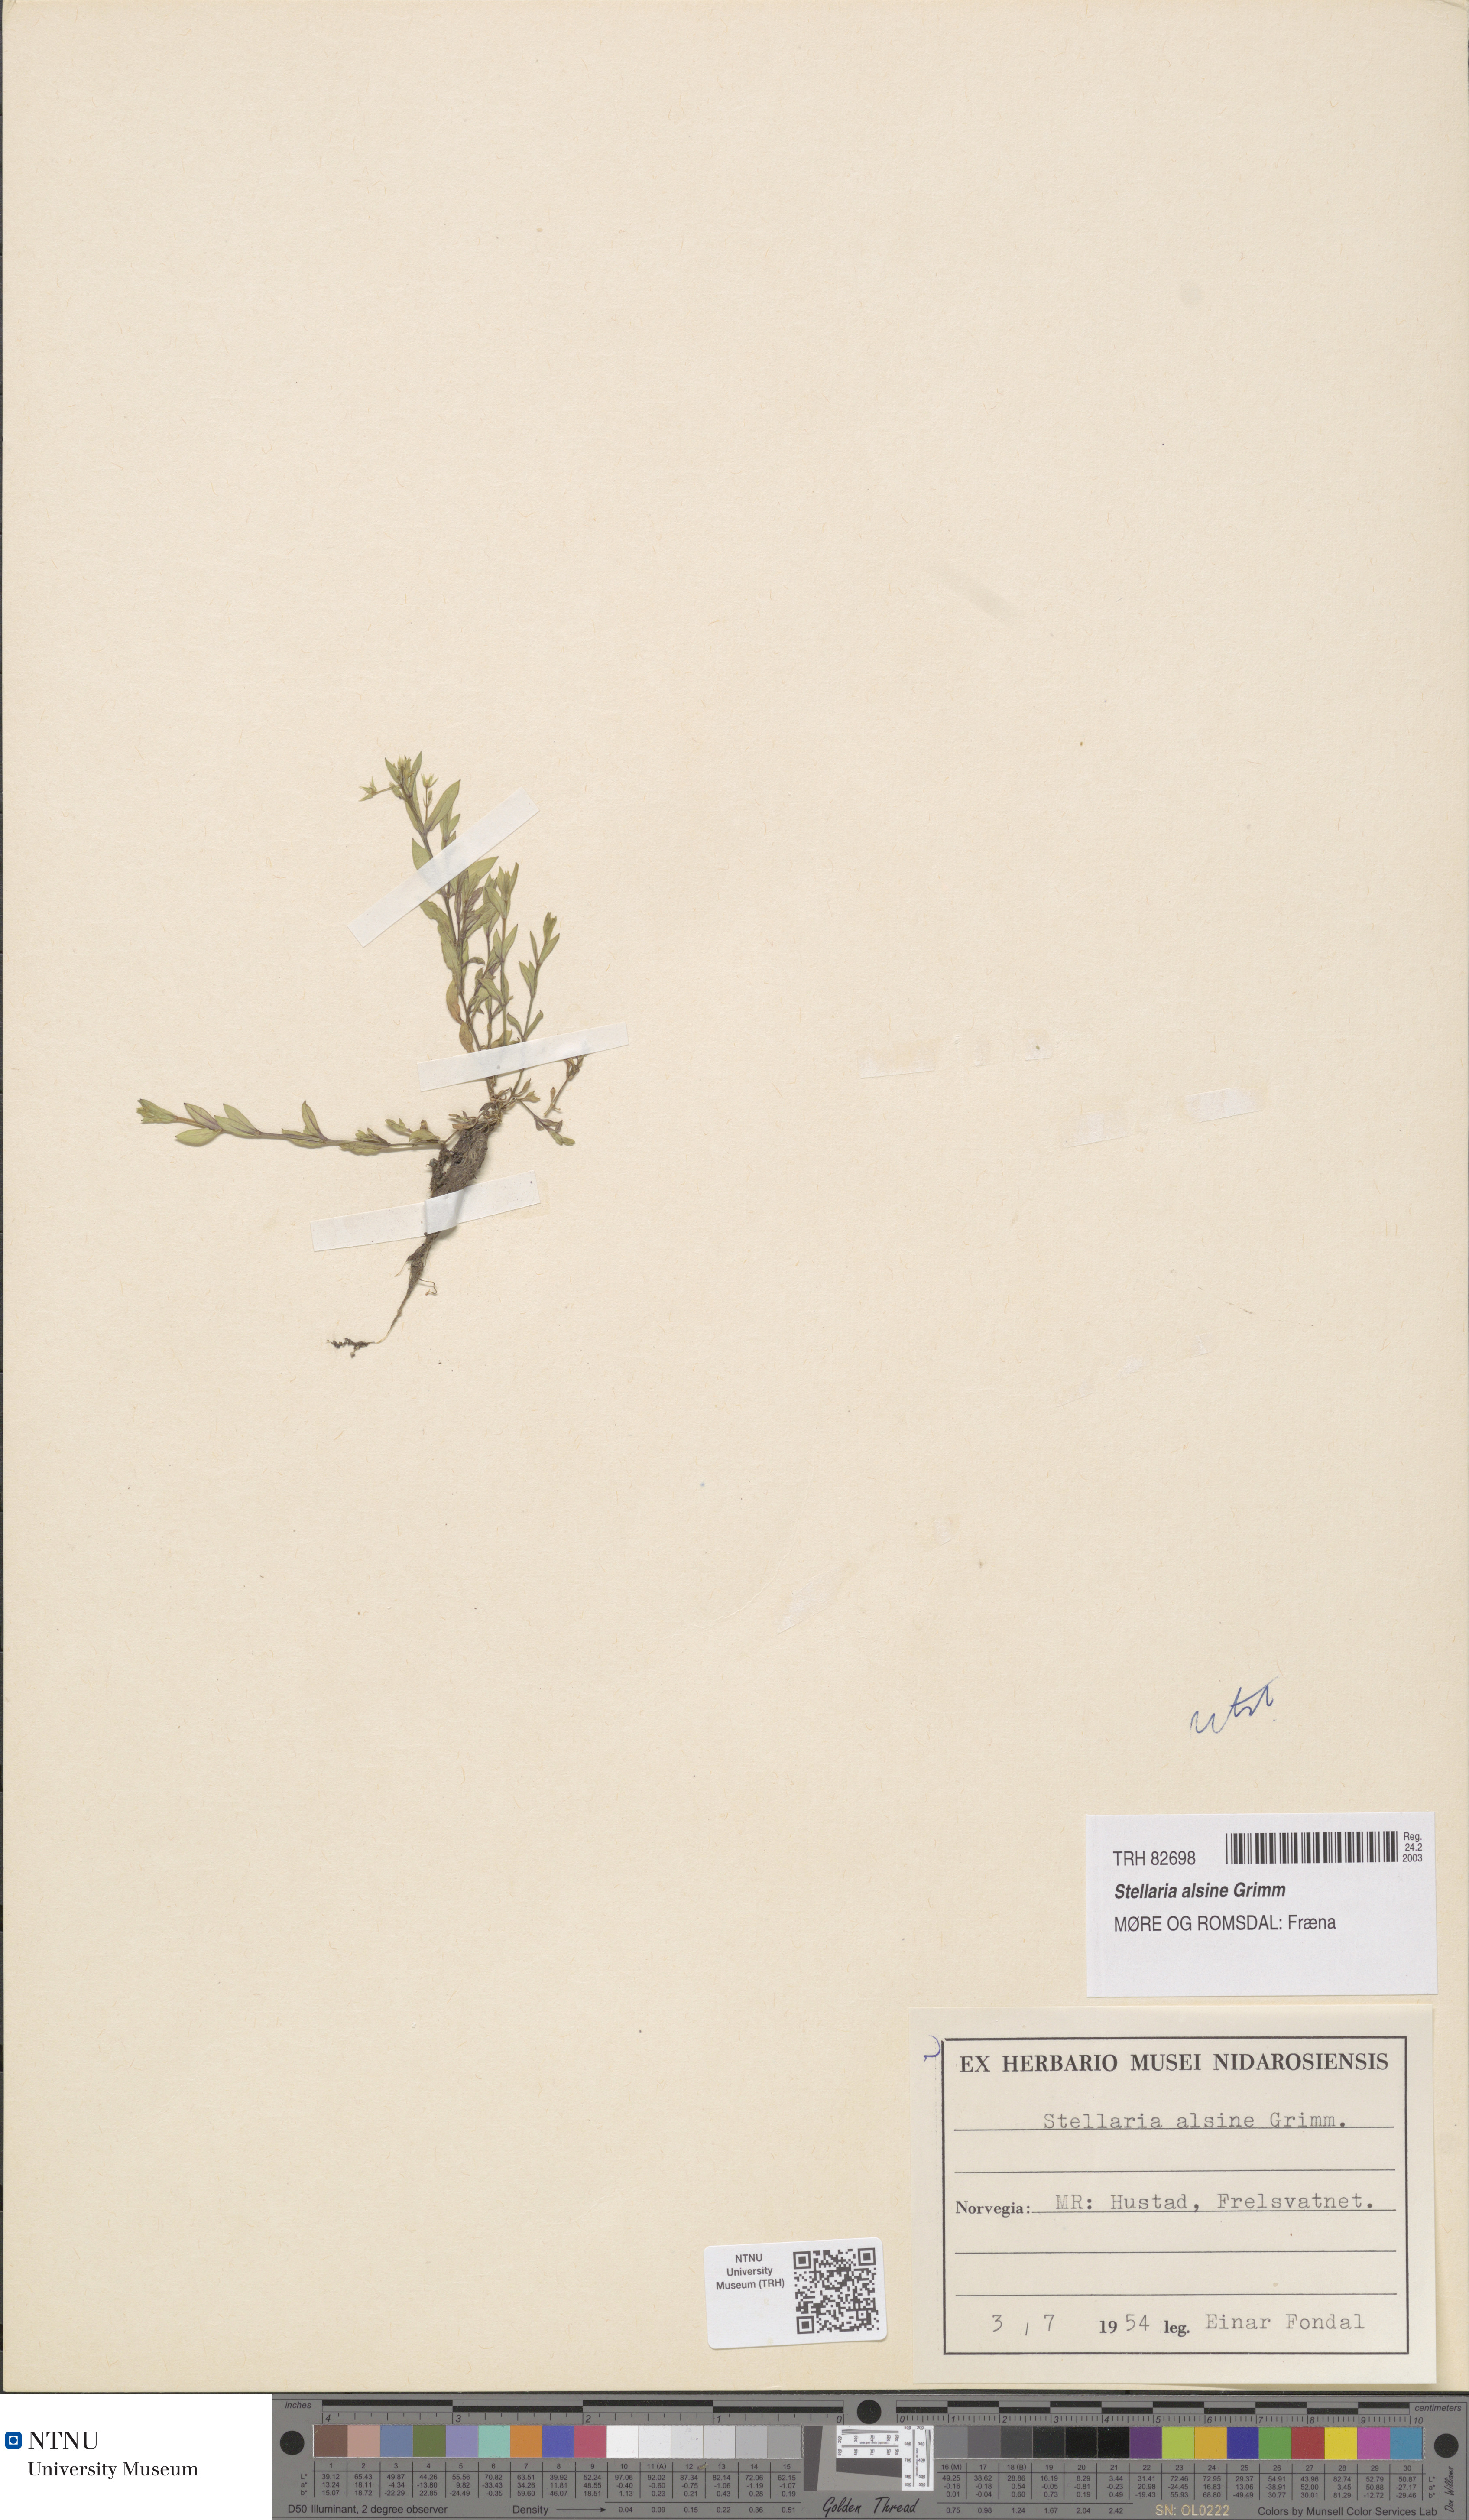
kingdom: Plantae
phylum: Tracheophyta
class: Magnoliopsida
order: Caryophyllales
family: Caryophyllaceae
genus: Stellaria
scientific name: Stellaria alsine
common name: Bog stitchwort
